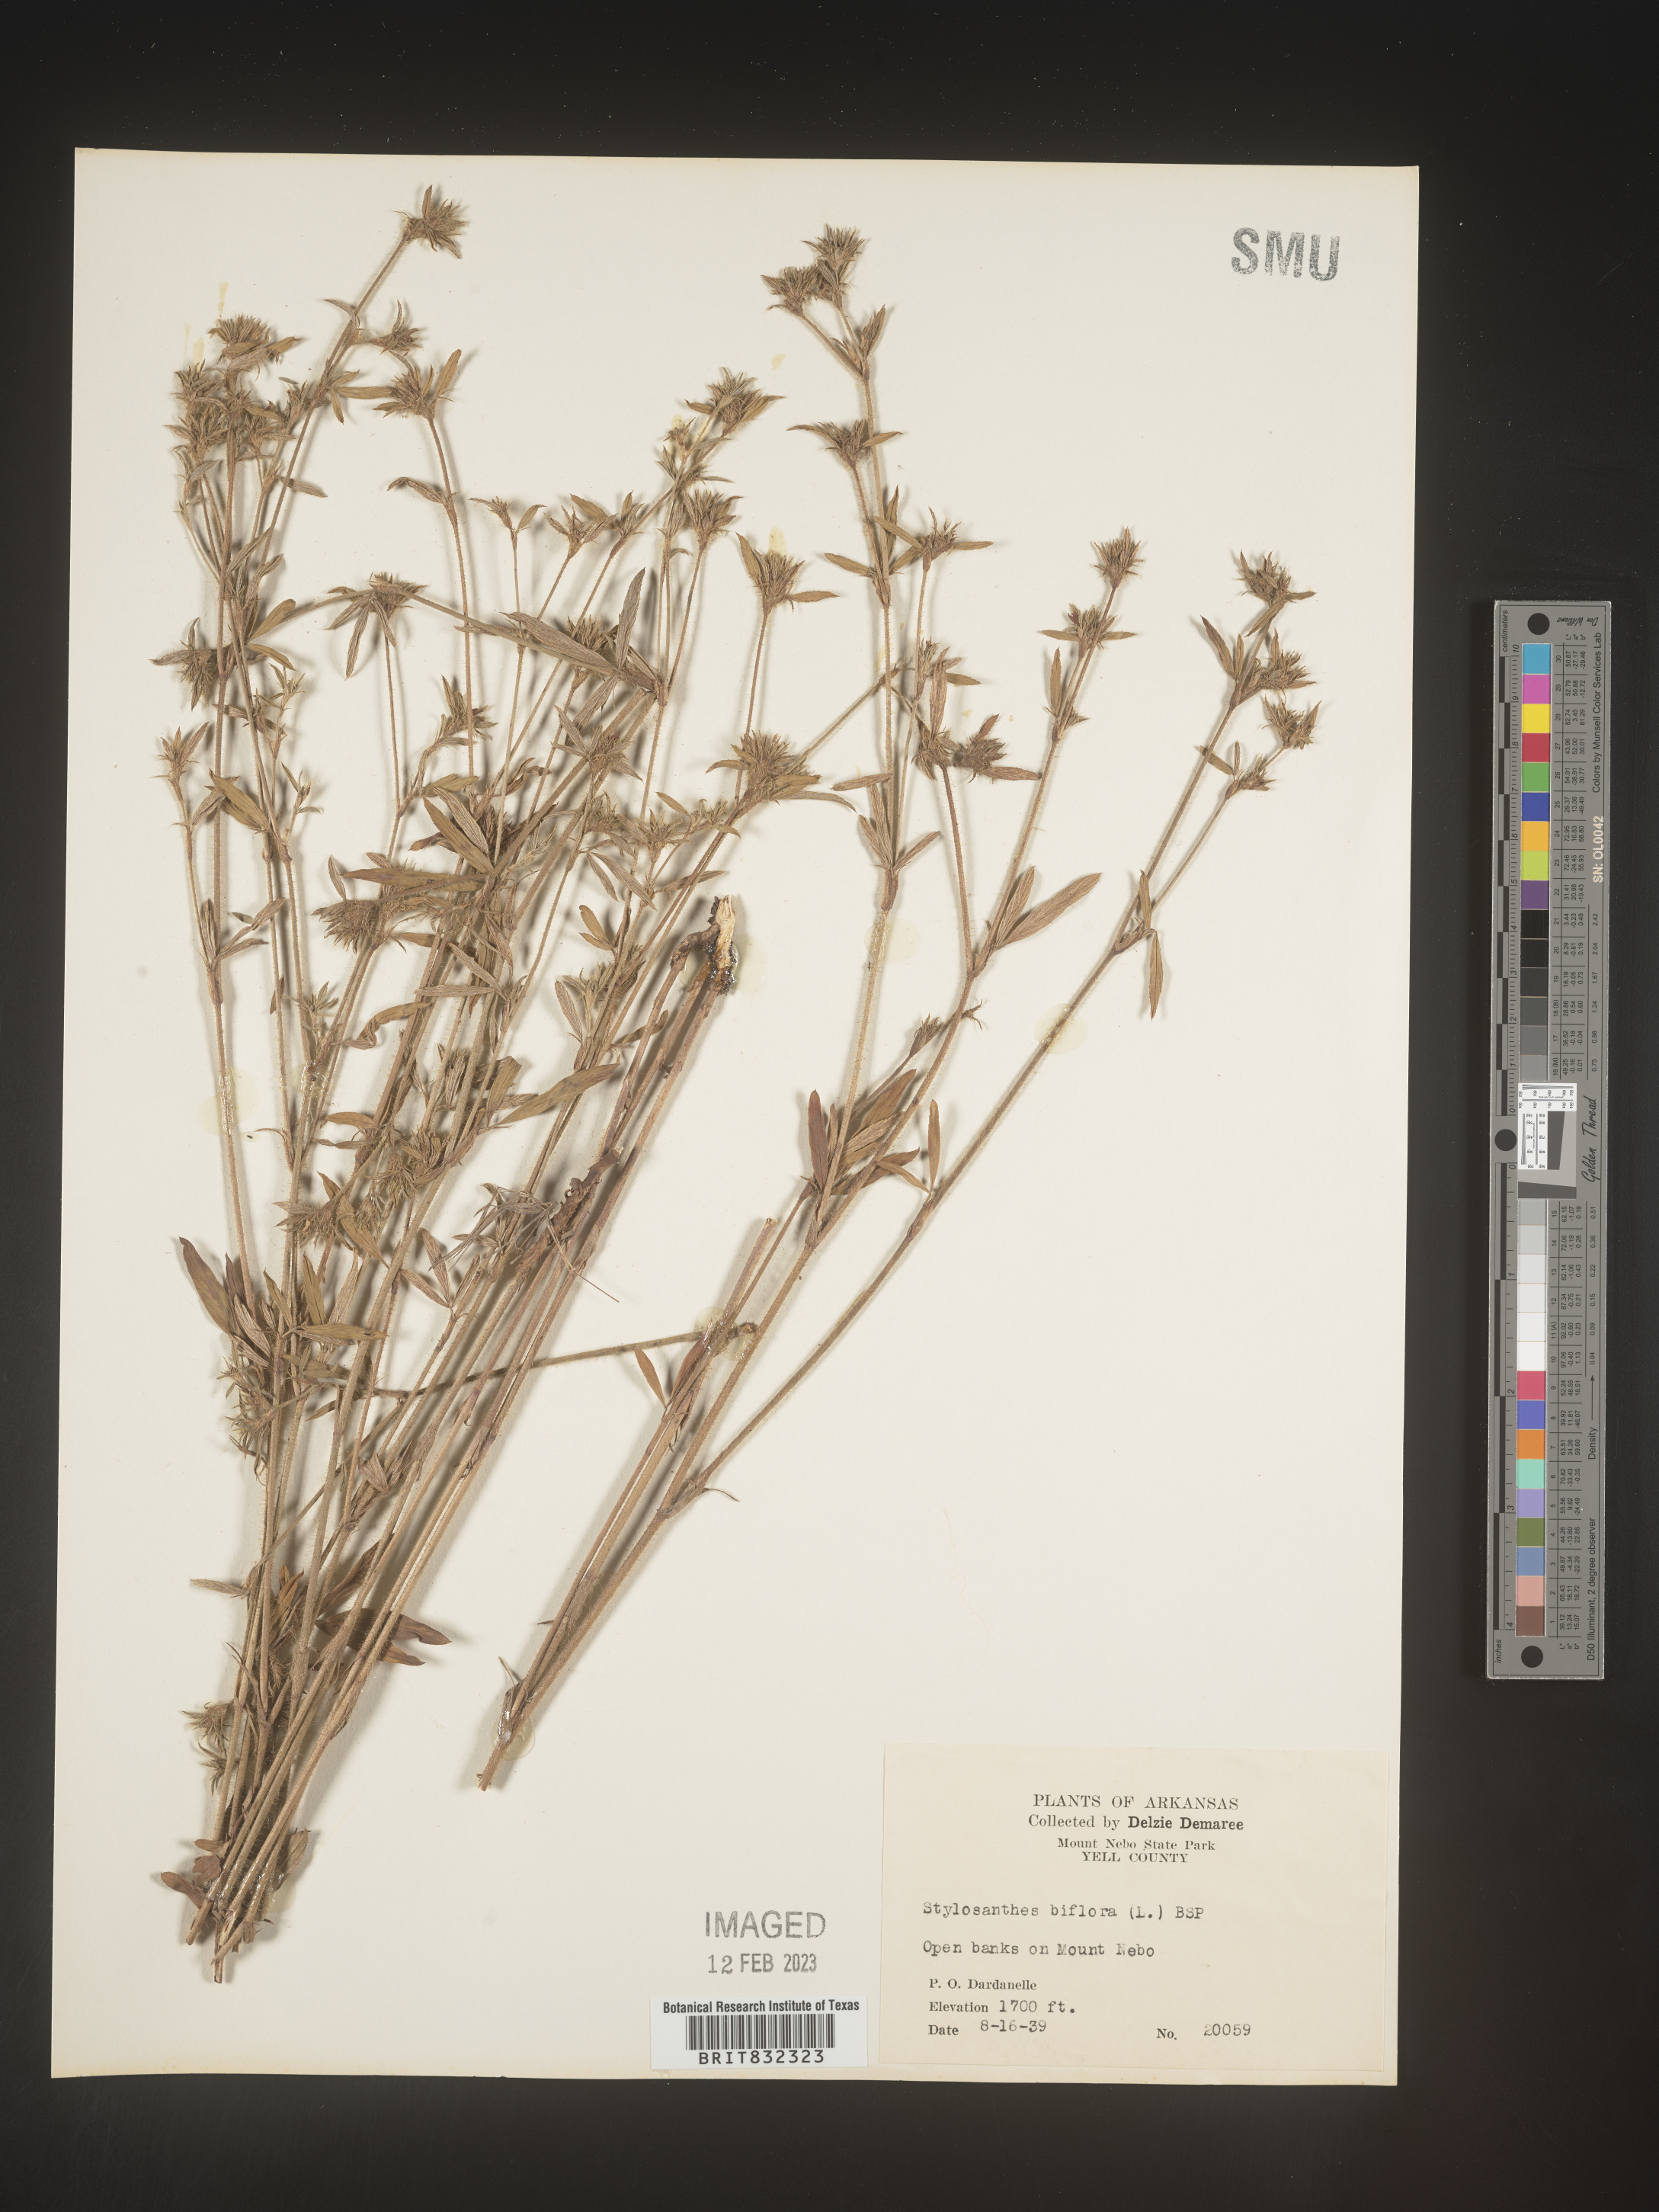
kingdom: Plantae
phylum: Tracheophyta
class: Magnoliopsida
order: Fabales
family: Fabaceae
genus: Stylosanthes
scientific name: Stylosanthes biflora
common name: Two-flower pencil-flower
